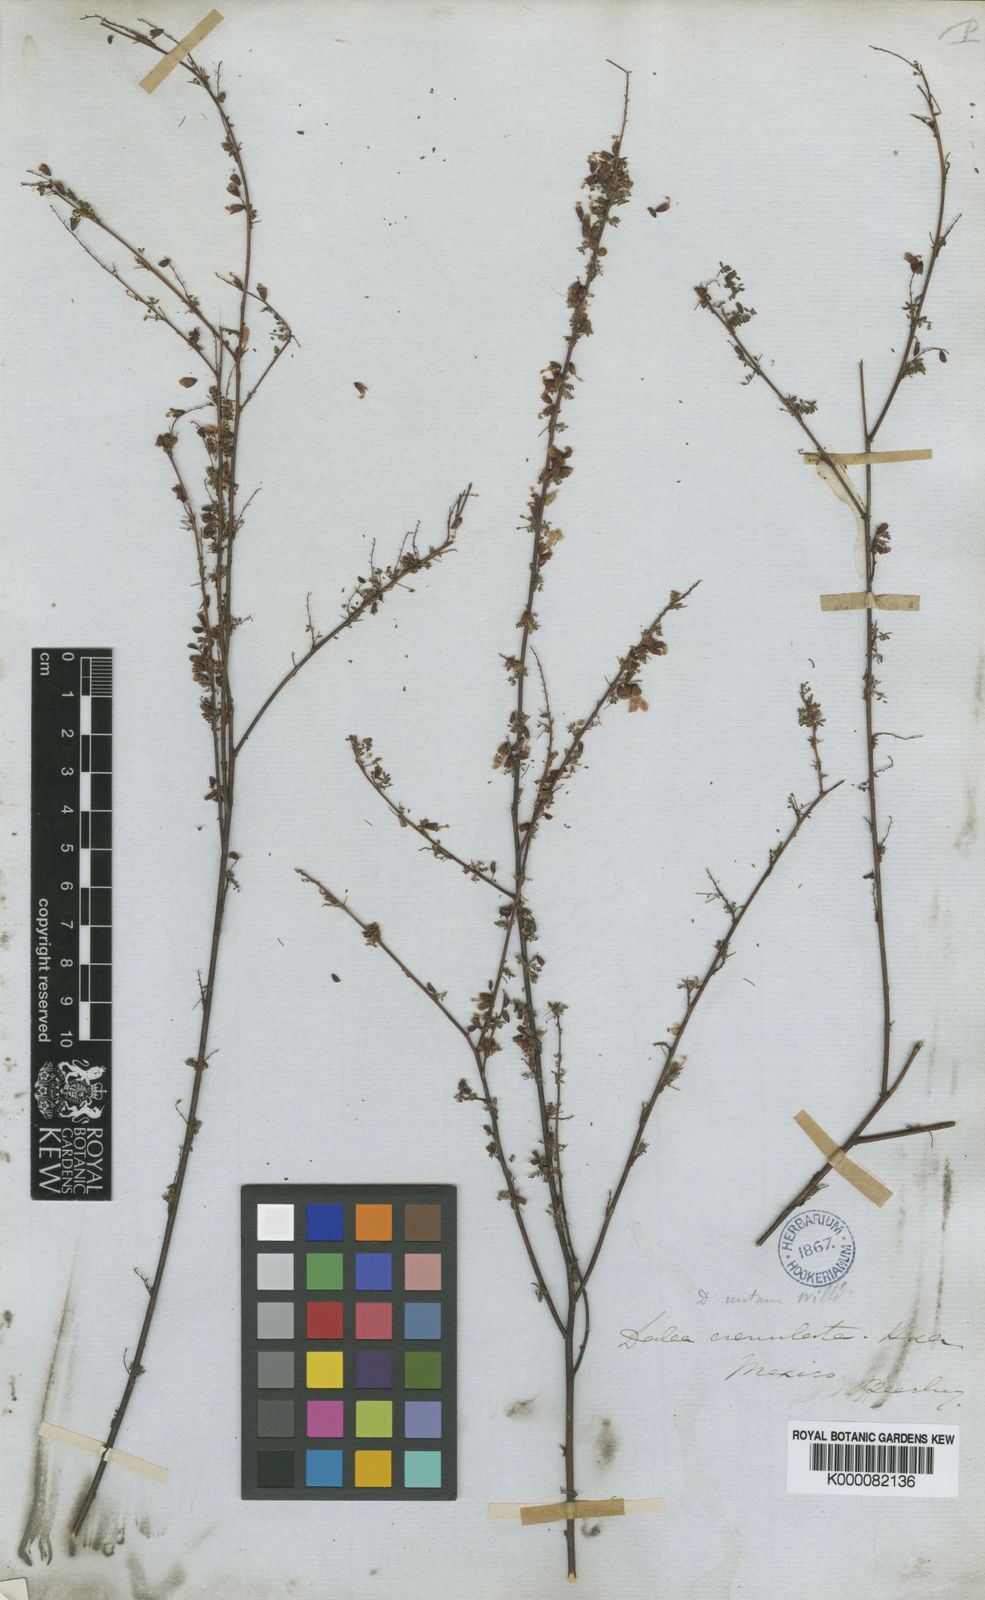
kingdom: Plantae
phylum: Tracheophyta
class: Magnoliopsida
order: Fabales
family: Fabaceae
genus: Marina
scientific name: Marina crenulata
